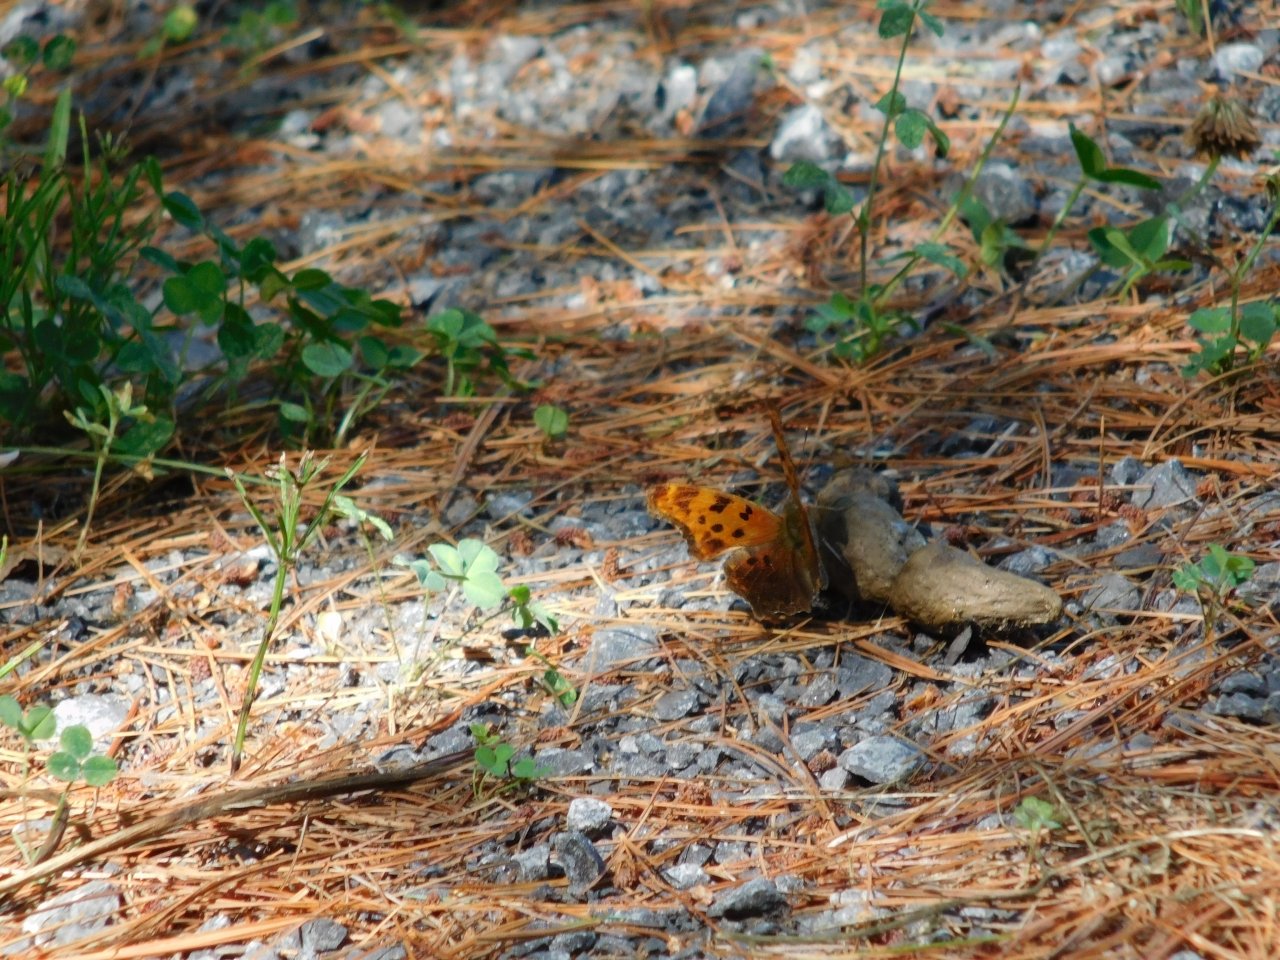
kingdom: Animalia
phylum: Arthropoda
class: Insecta
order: Lepidoptera
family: Nymphalidae
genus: Polygonia
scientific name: Polygonia comma
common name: Eastern Comma
